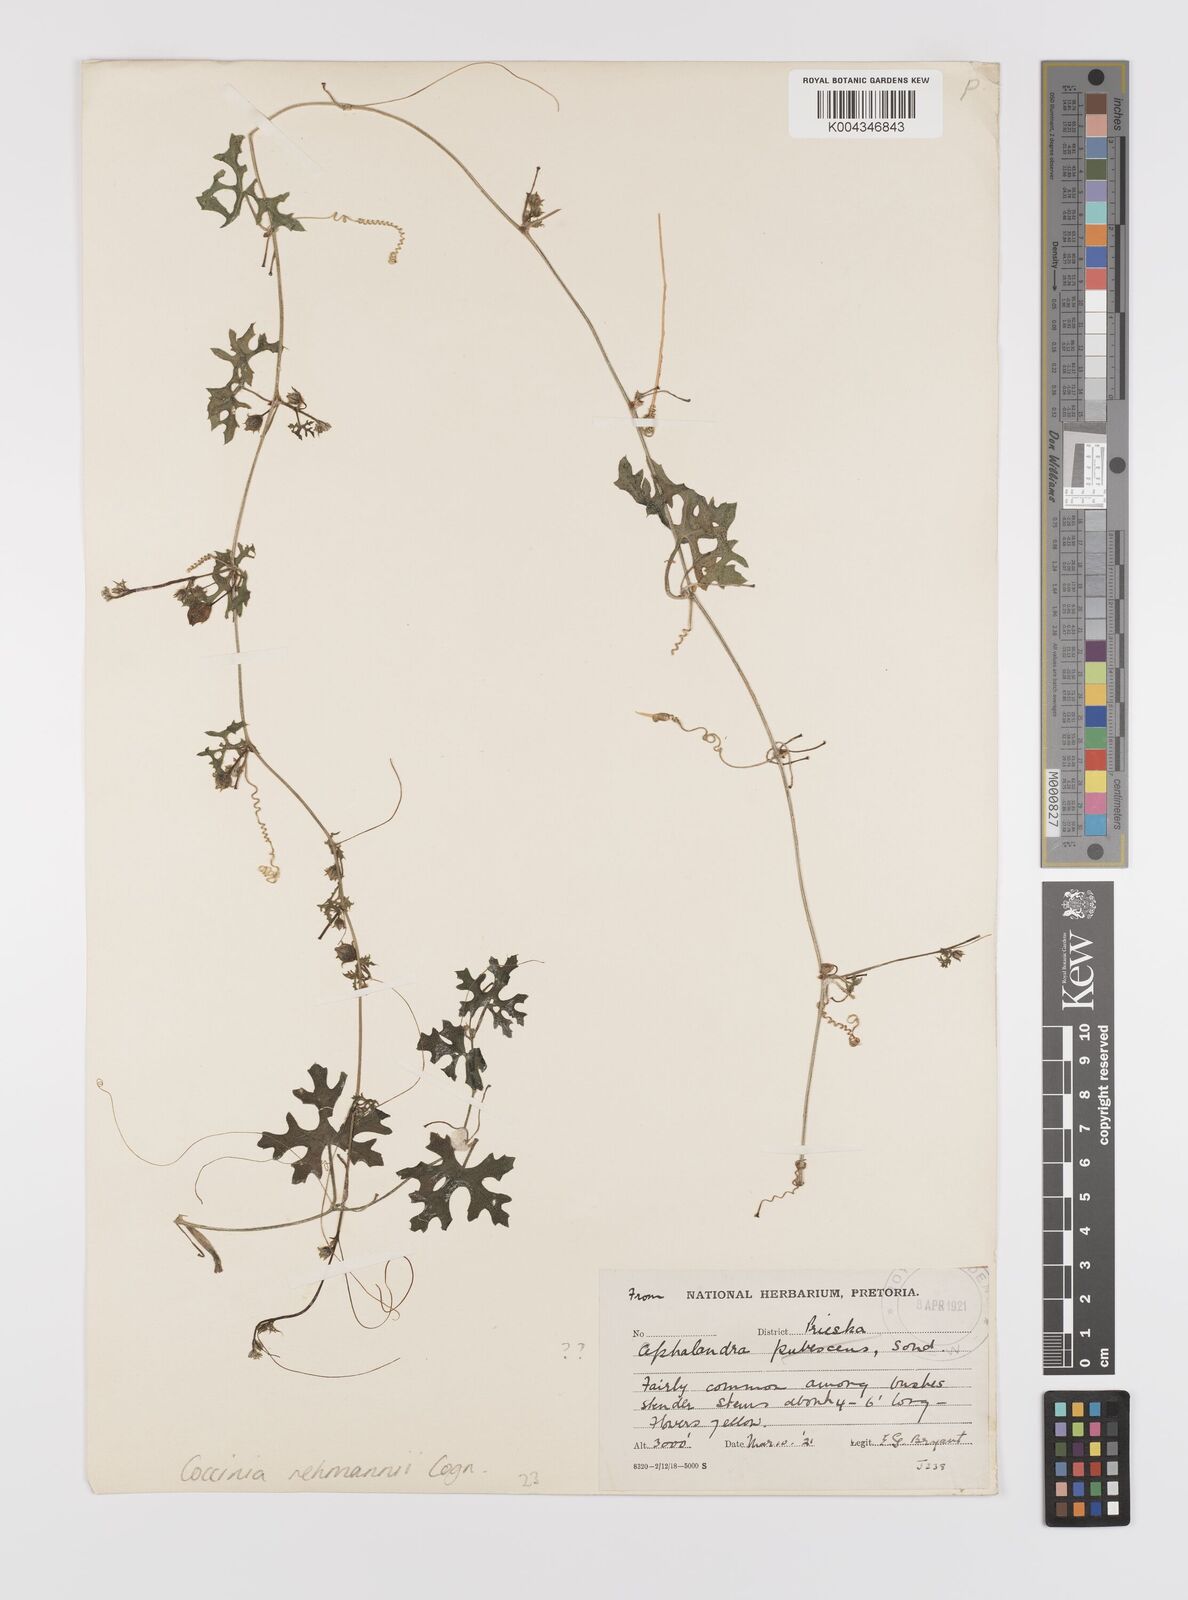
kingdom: Plantae
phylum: Tracheophyta
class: Magnoliopsida
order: Cucurbitales
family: Cucurbitaceae
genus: Coccinia
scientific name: Coccinia rehmannii
